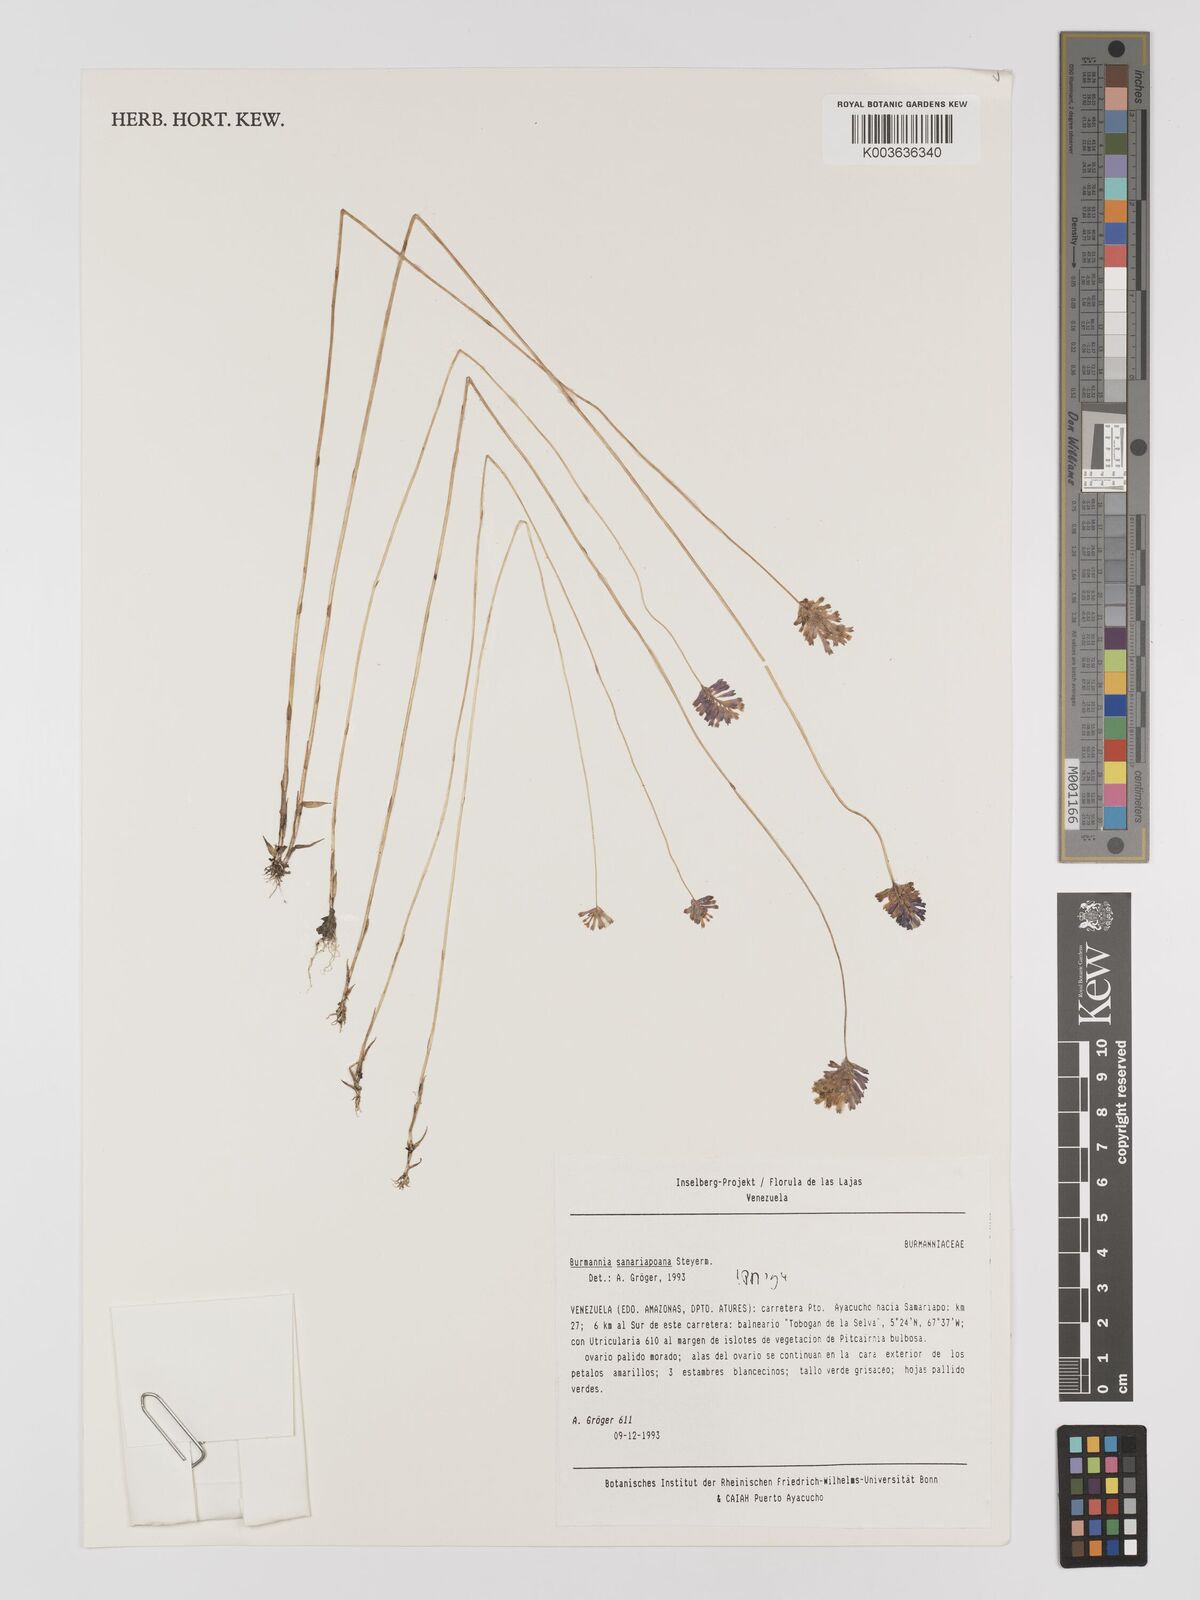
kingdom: Plantae
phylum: Tracheophyta
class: Liliopsida
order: Dioscoreales
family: Burmanniaceae
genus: Burmannia
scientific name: Burmannia sanariapoana
